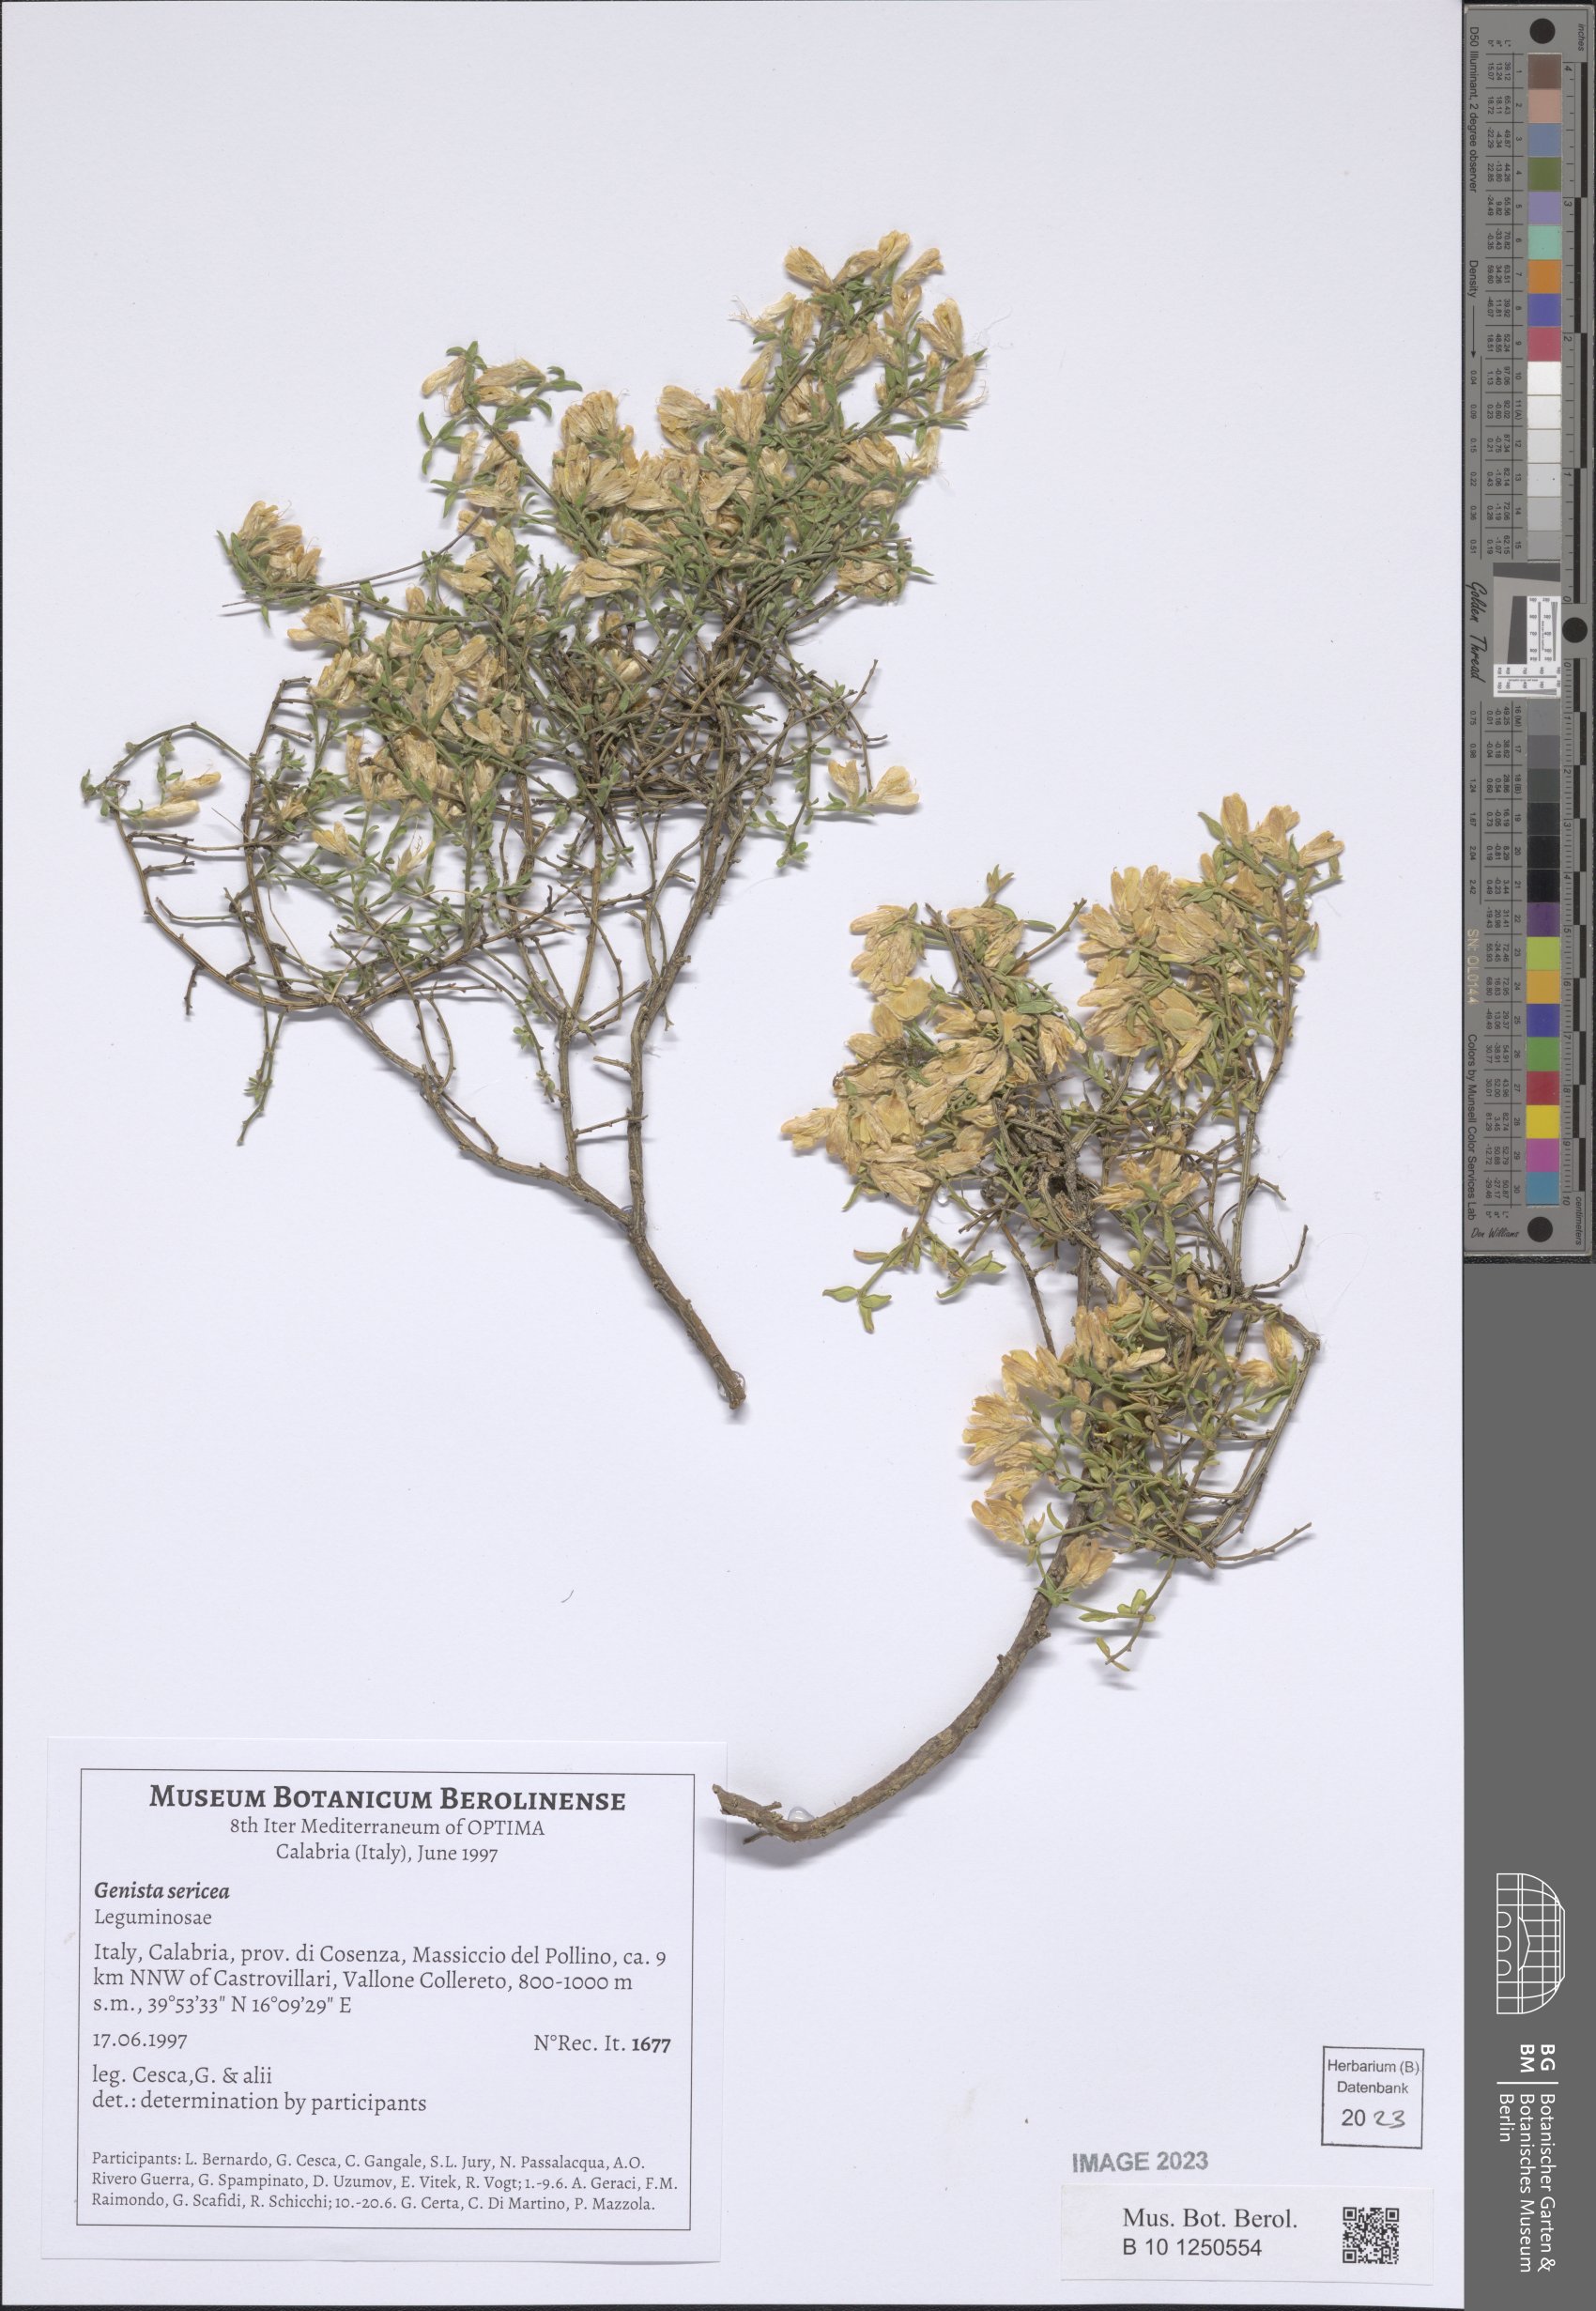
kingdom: Plantae
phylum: Tracheophyta
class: Magnoliopsida
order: Fabales
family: Fabaceae
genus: Genista
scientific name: Genista sericea
